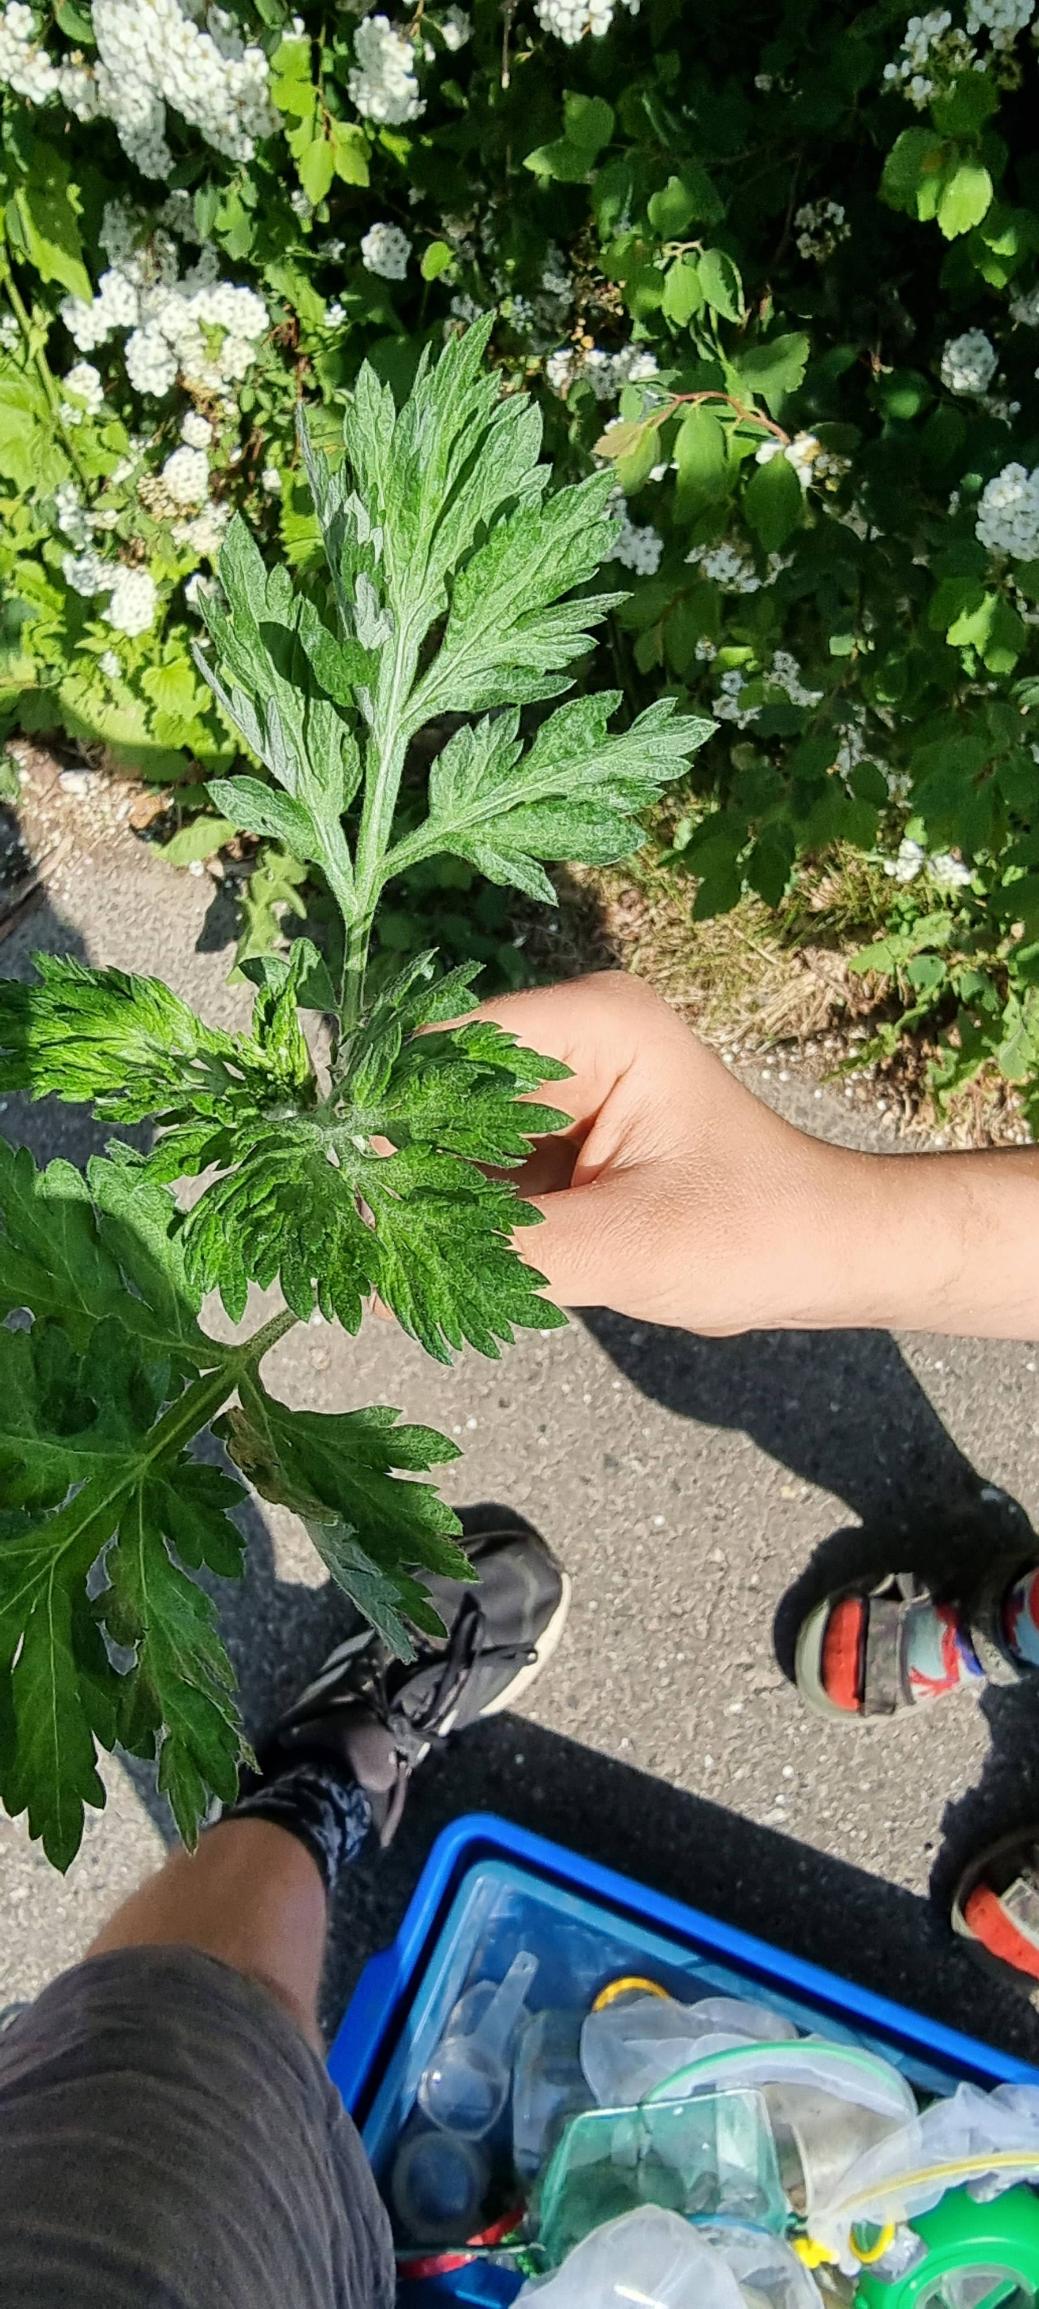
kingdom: Plantae
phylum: Tracheophyta
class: Magnoliopsida
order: Asterales
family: Asteraceae
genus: Artemisia
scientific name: Artemisia vulgaris
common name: Grå-bynke
